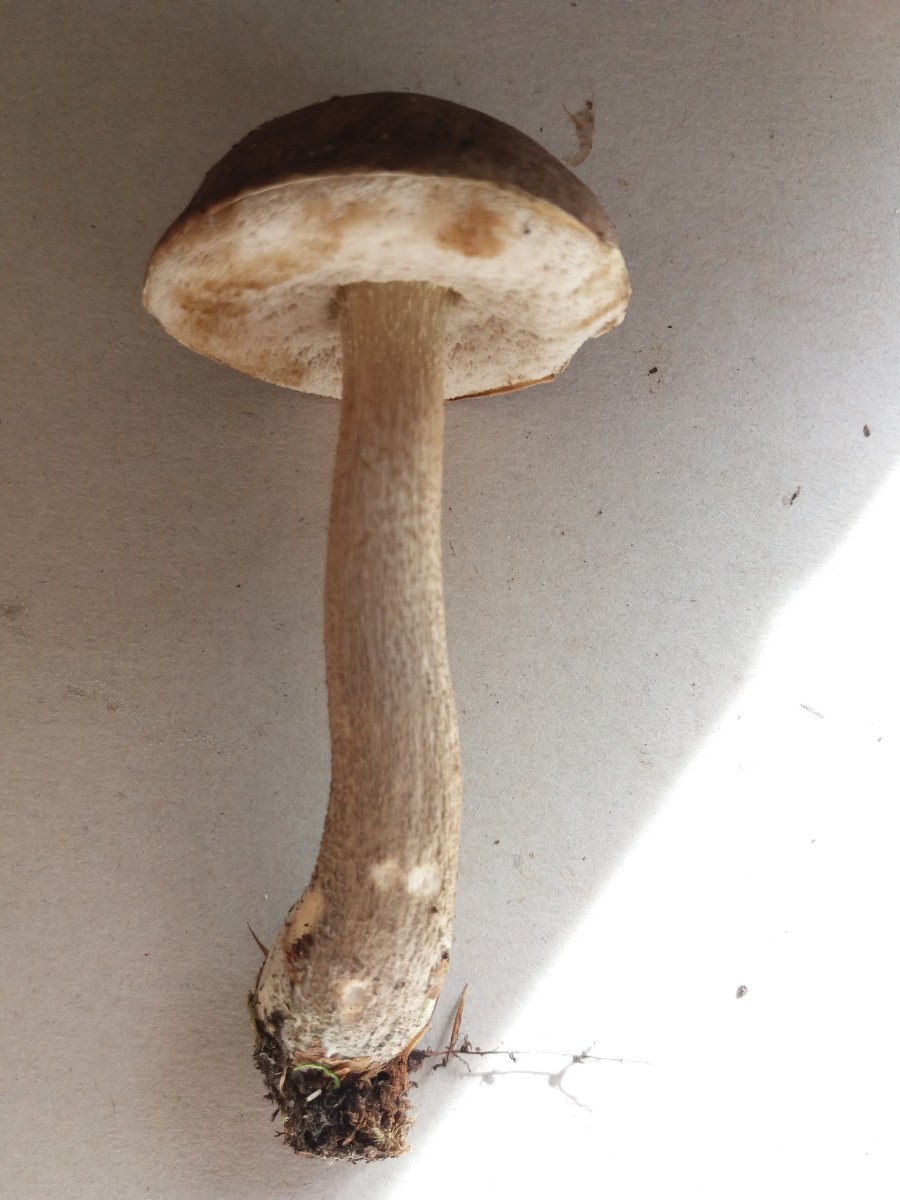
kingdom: Fungi
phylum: Basidiomycota
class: Agaricomycetes
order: Boletales
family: Boletaceae
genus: Leccinum
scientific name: Leccinum cyaneobasileucum
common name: almindelig skælrørhat
